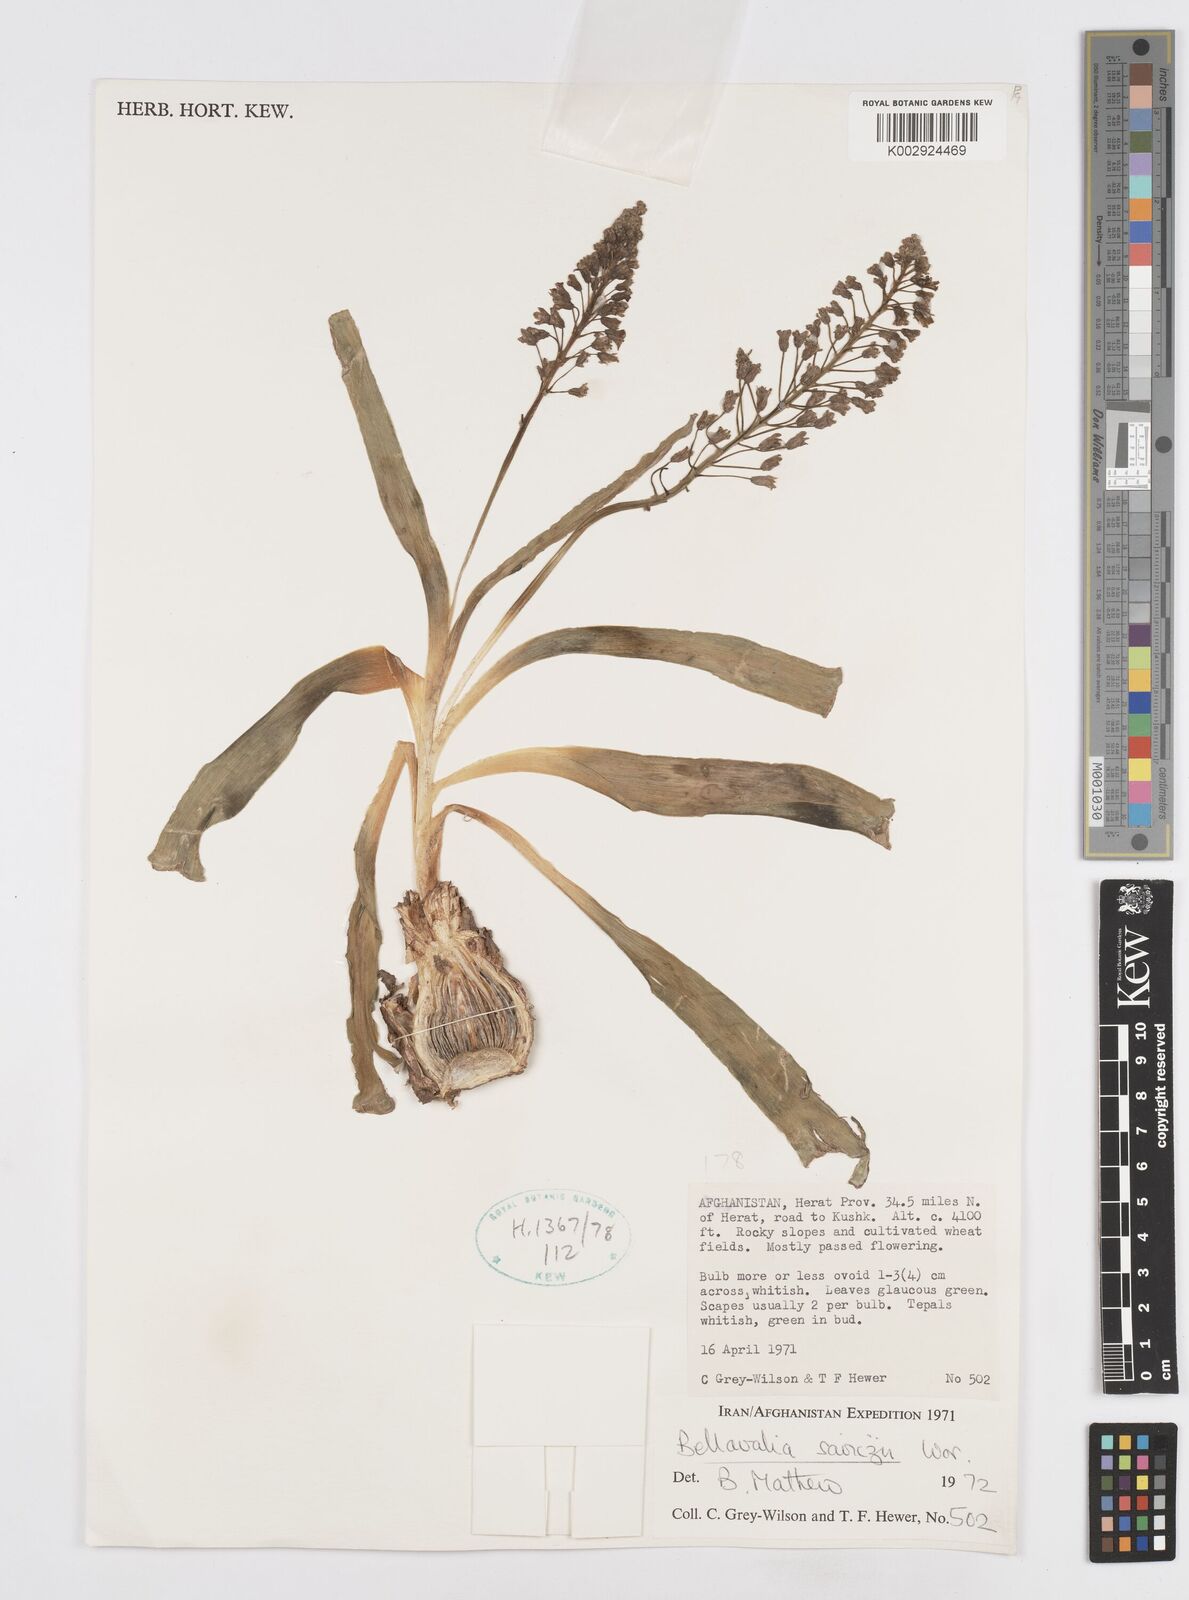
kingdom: Plantae
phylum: Tracheophyta
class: Liliopsida
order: Asparagales
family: Asparagaceae
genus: Bellevalia
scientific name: Bellevalia saviczii
